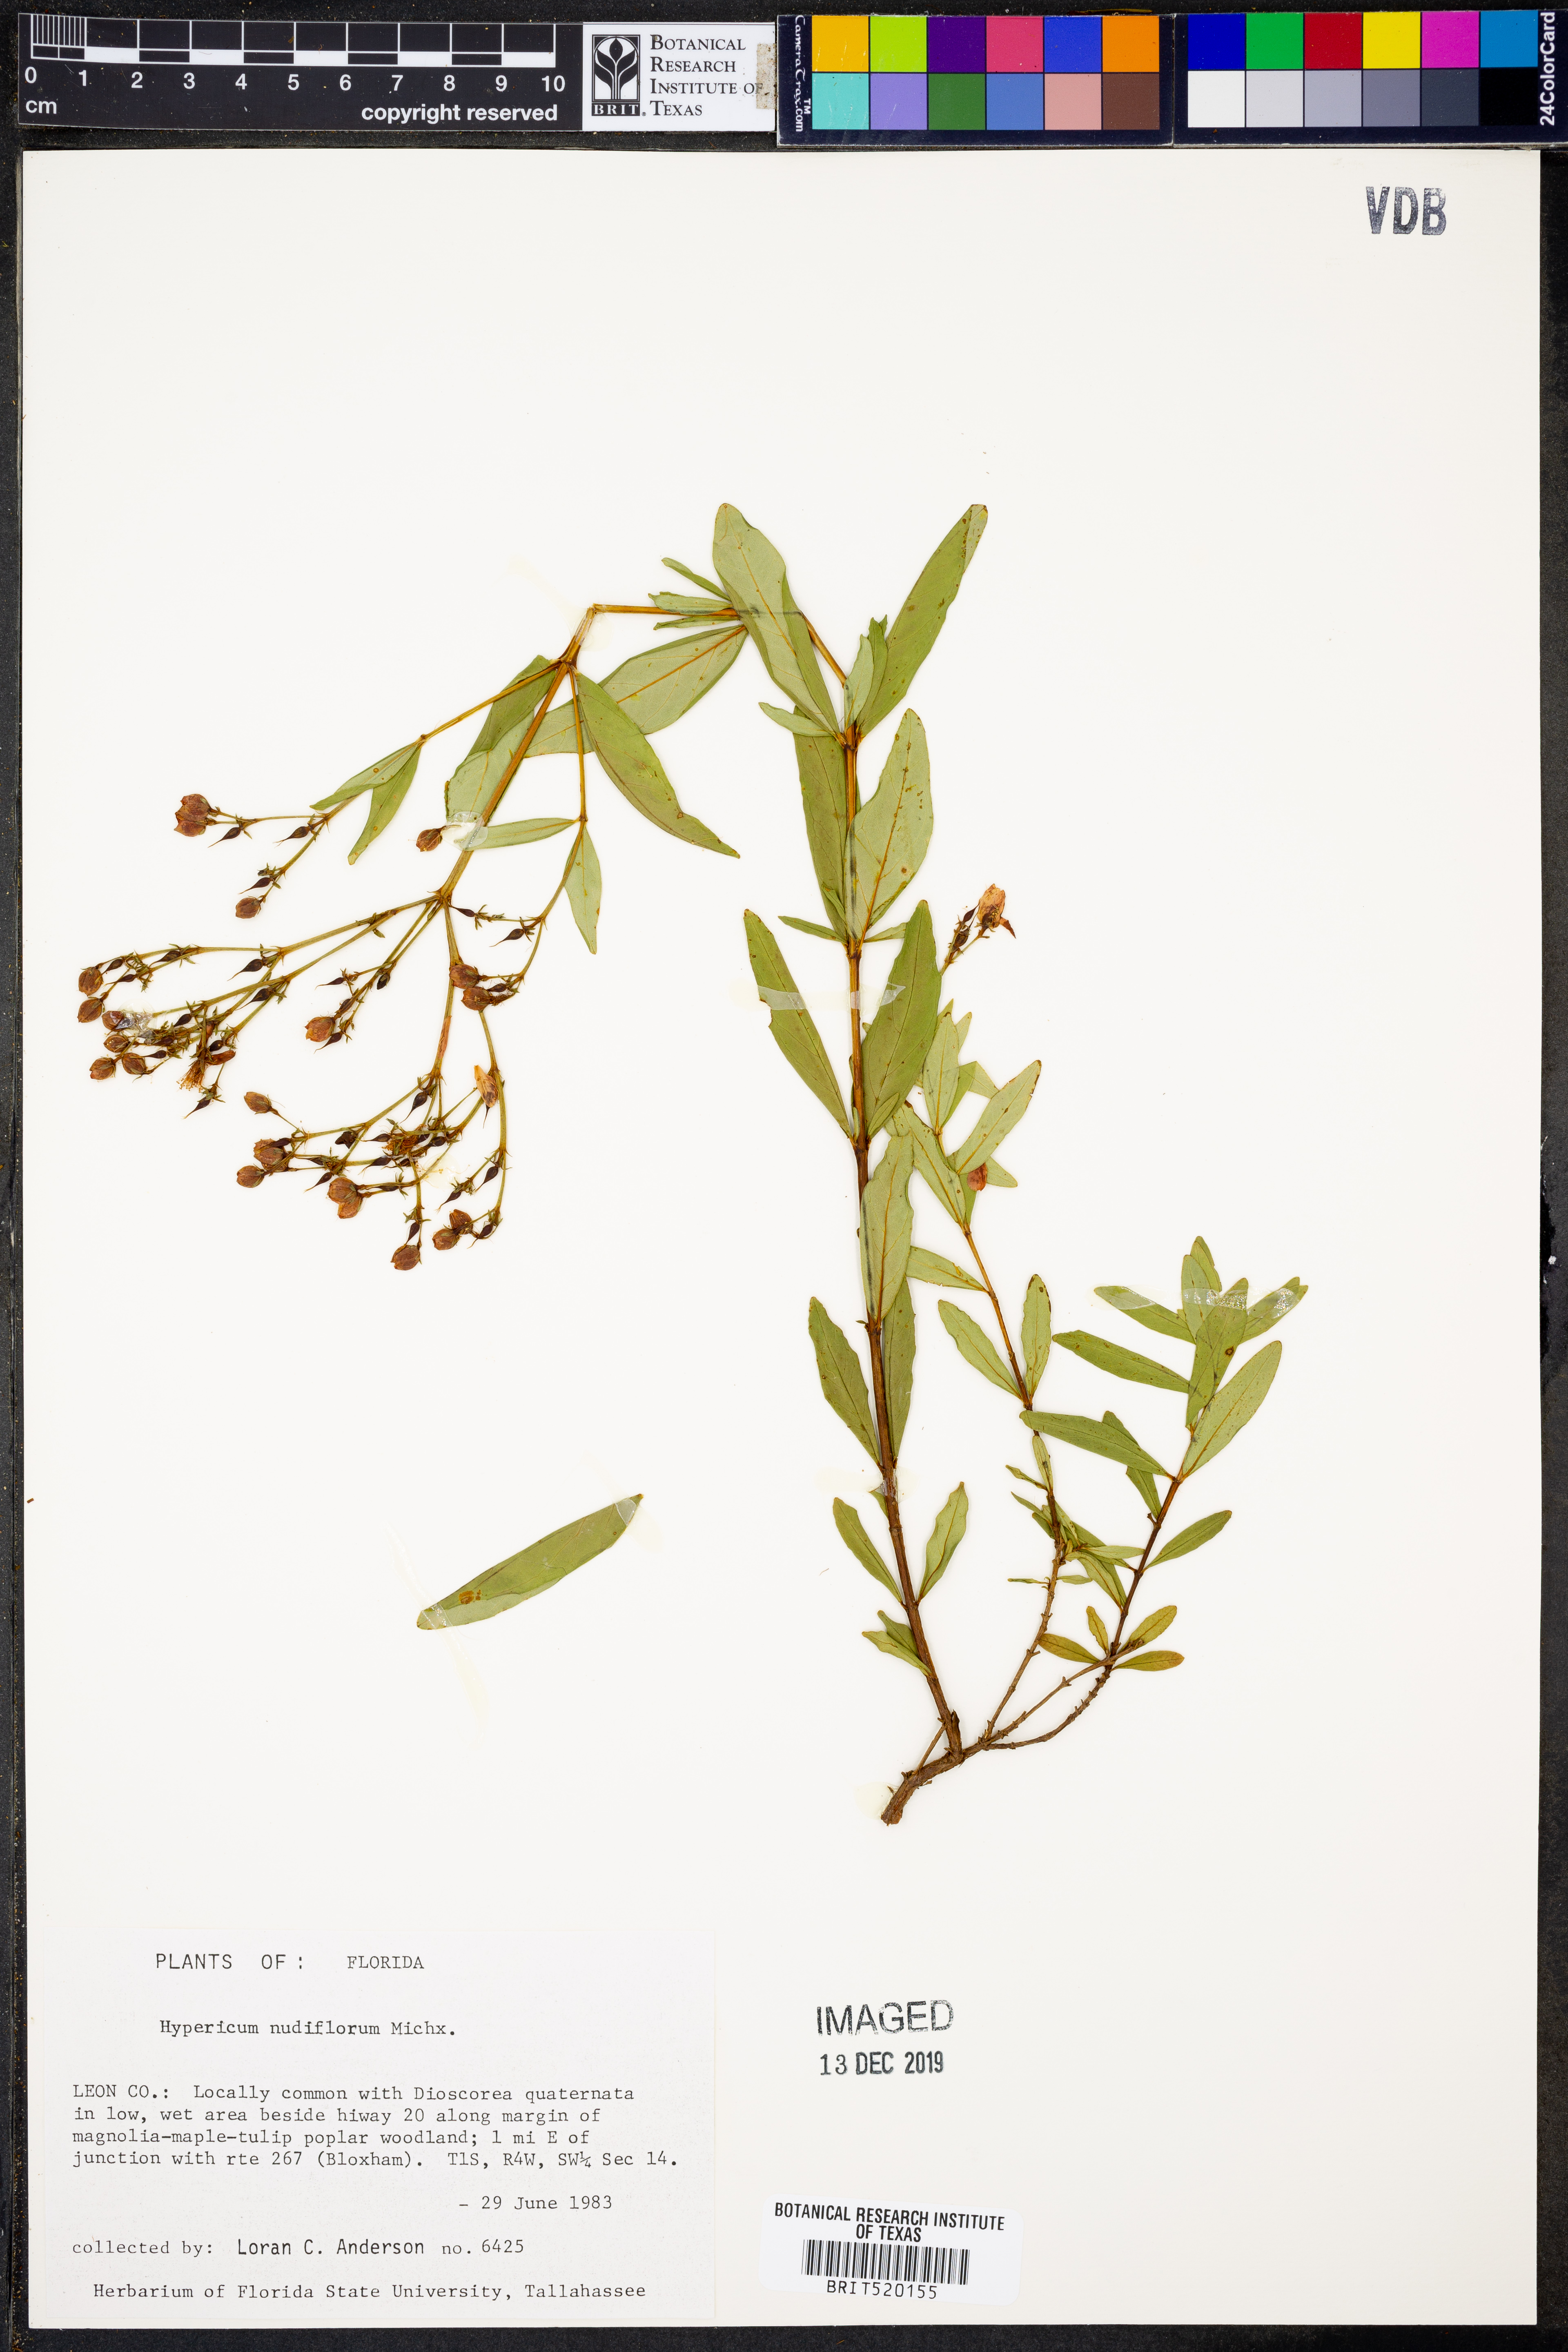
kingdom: Plantae
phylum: Tracheophyta
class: Magnoliopsida
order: Malpighiales
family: Hypericaceae
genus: Hypericum
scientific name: Hypericum nudiflorum
